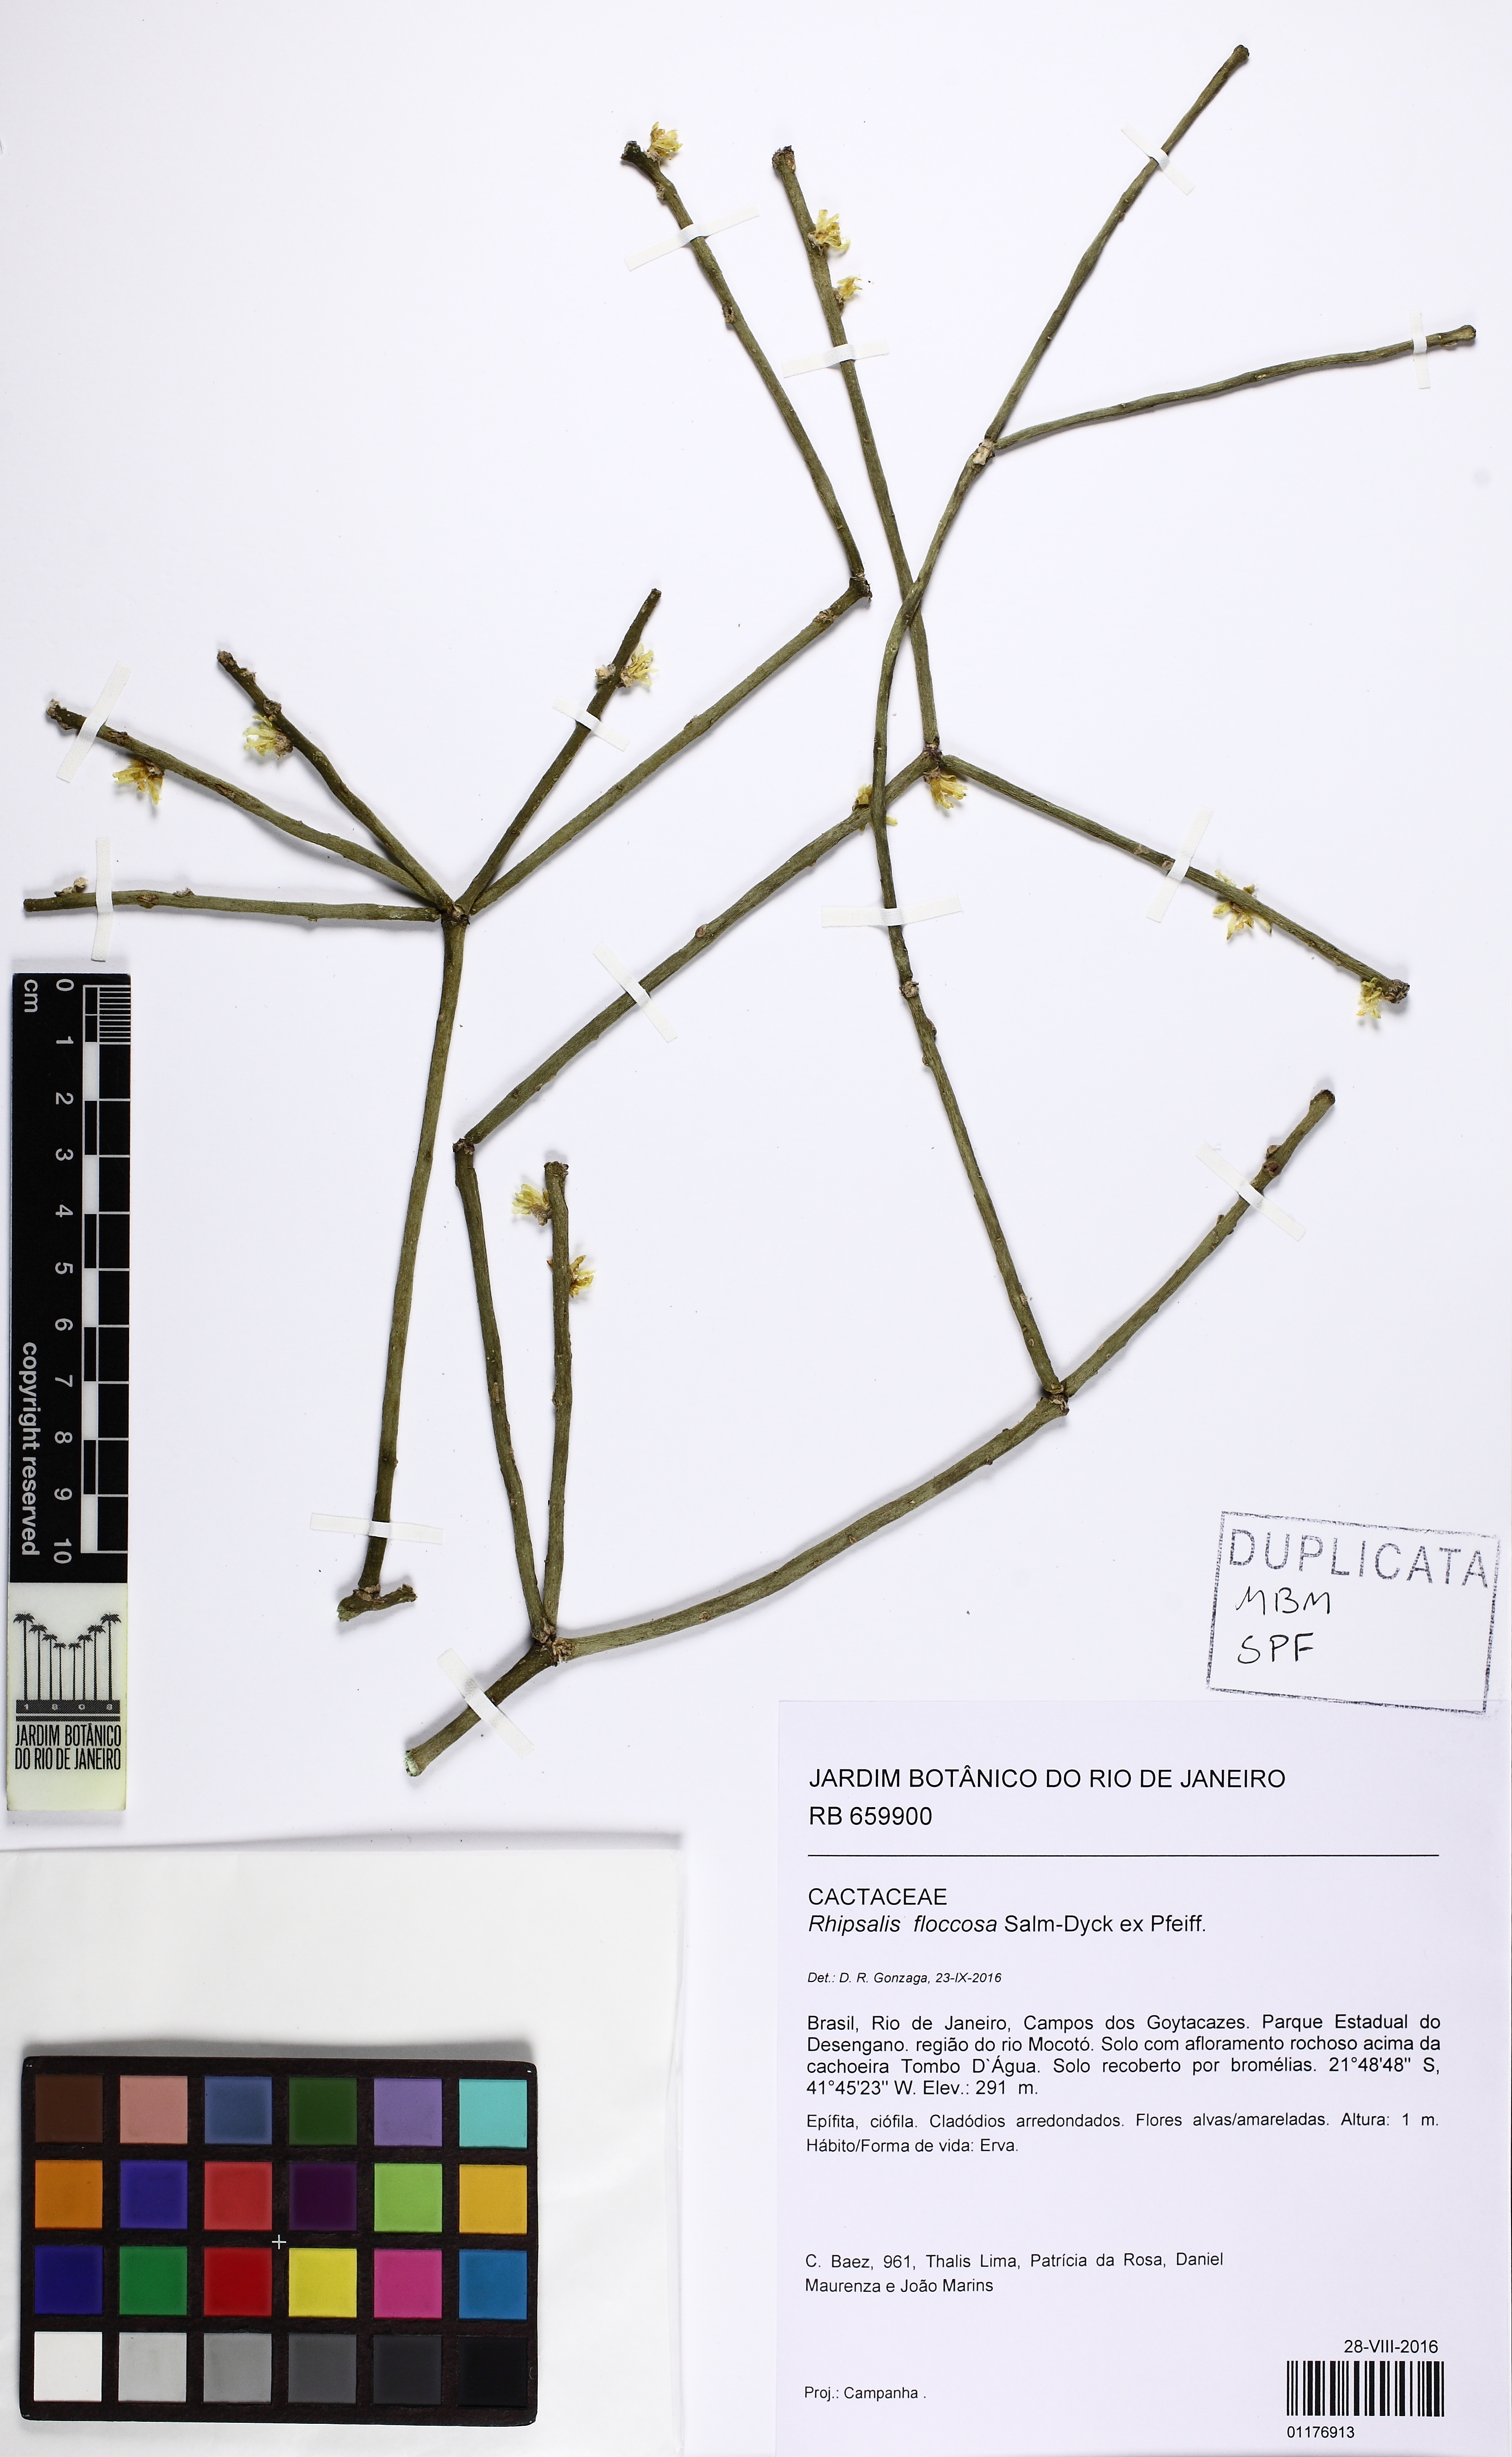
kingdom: Plantae
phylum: Tracheophyta
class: Magnoliopsida
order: Caryophyllales
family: Cactaceae
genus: Rhipsalis
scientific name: Rhipsalis floccosa
